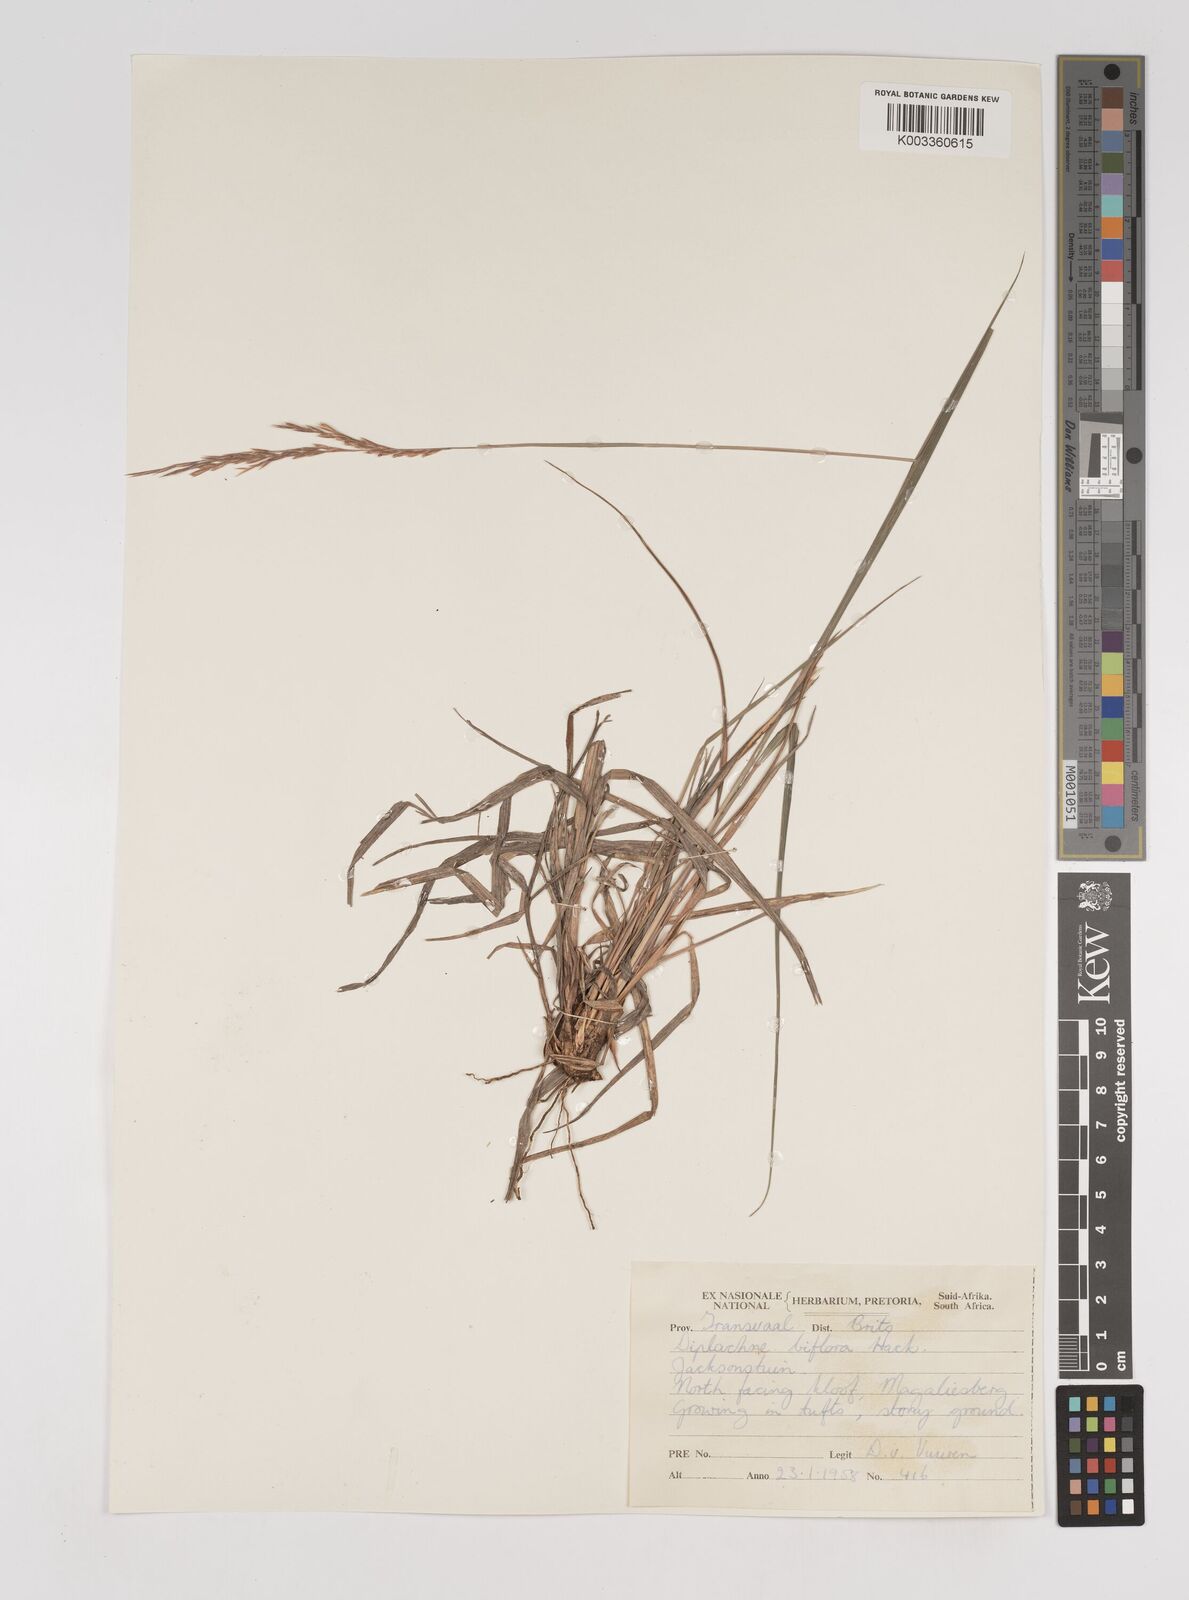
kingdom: Plantae
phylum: Tracheophyta
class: Liliopsida
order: Poales
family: Poaceae
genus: Bewsia
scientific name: Bewsia biflora
